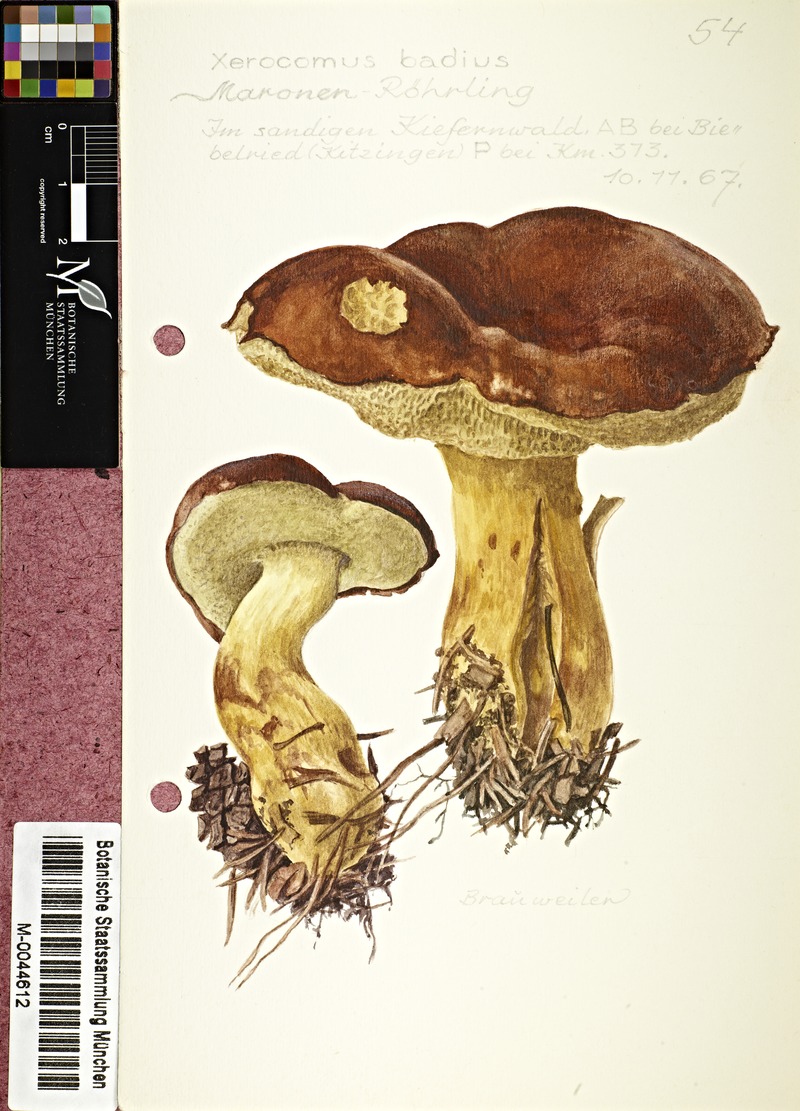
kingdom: Fungi
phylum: Basidiomycota
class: Agaricomycetes
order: Boletales
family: Boletaceae
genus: Imleria
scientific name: Imleria badia
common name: Bay bolete
